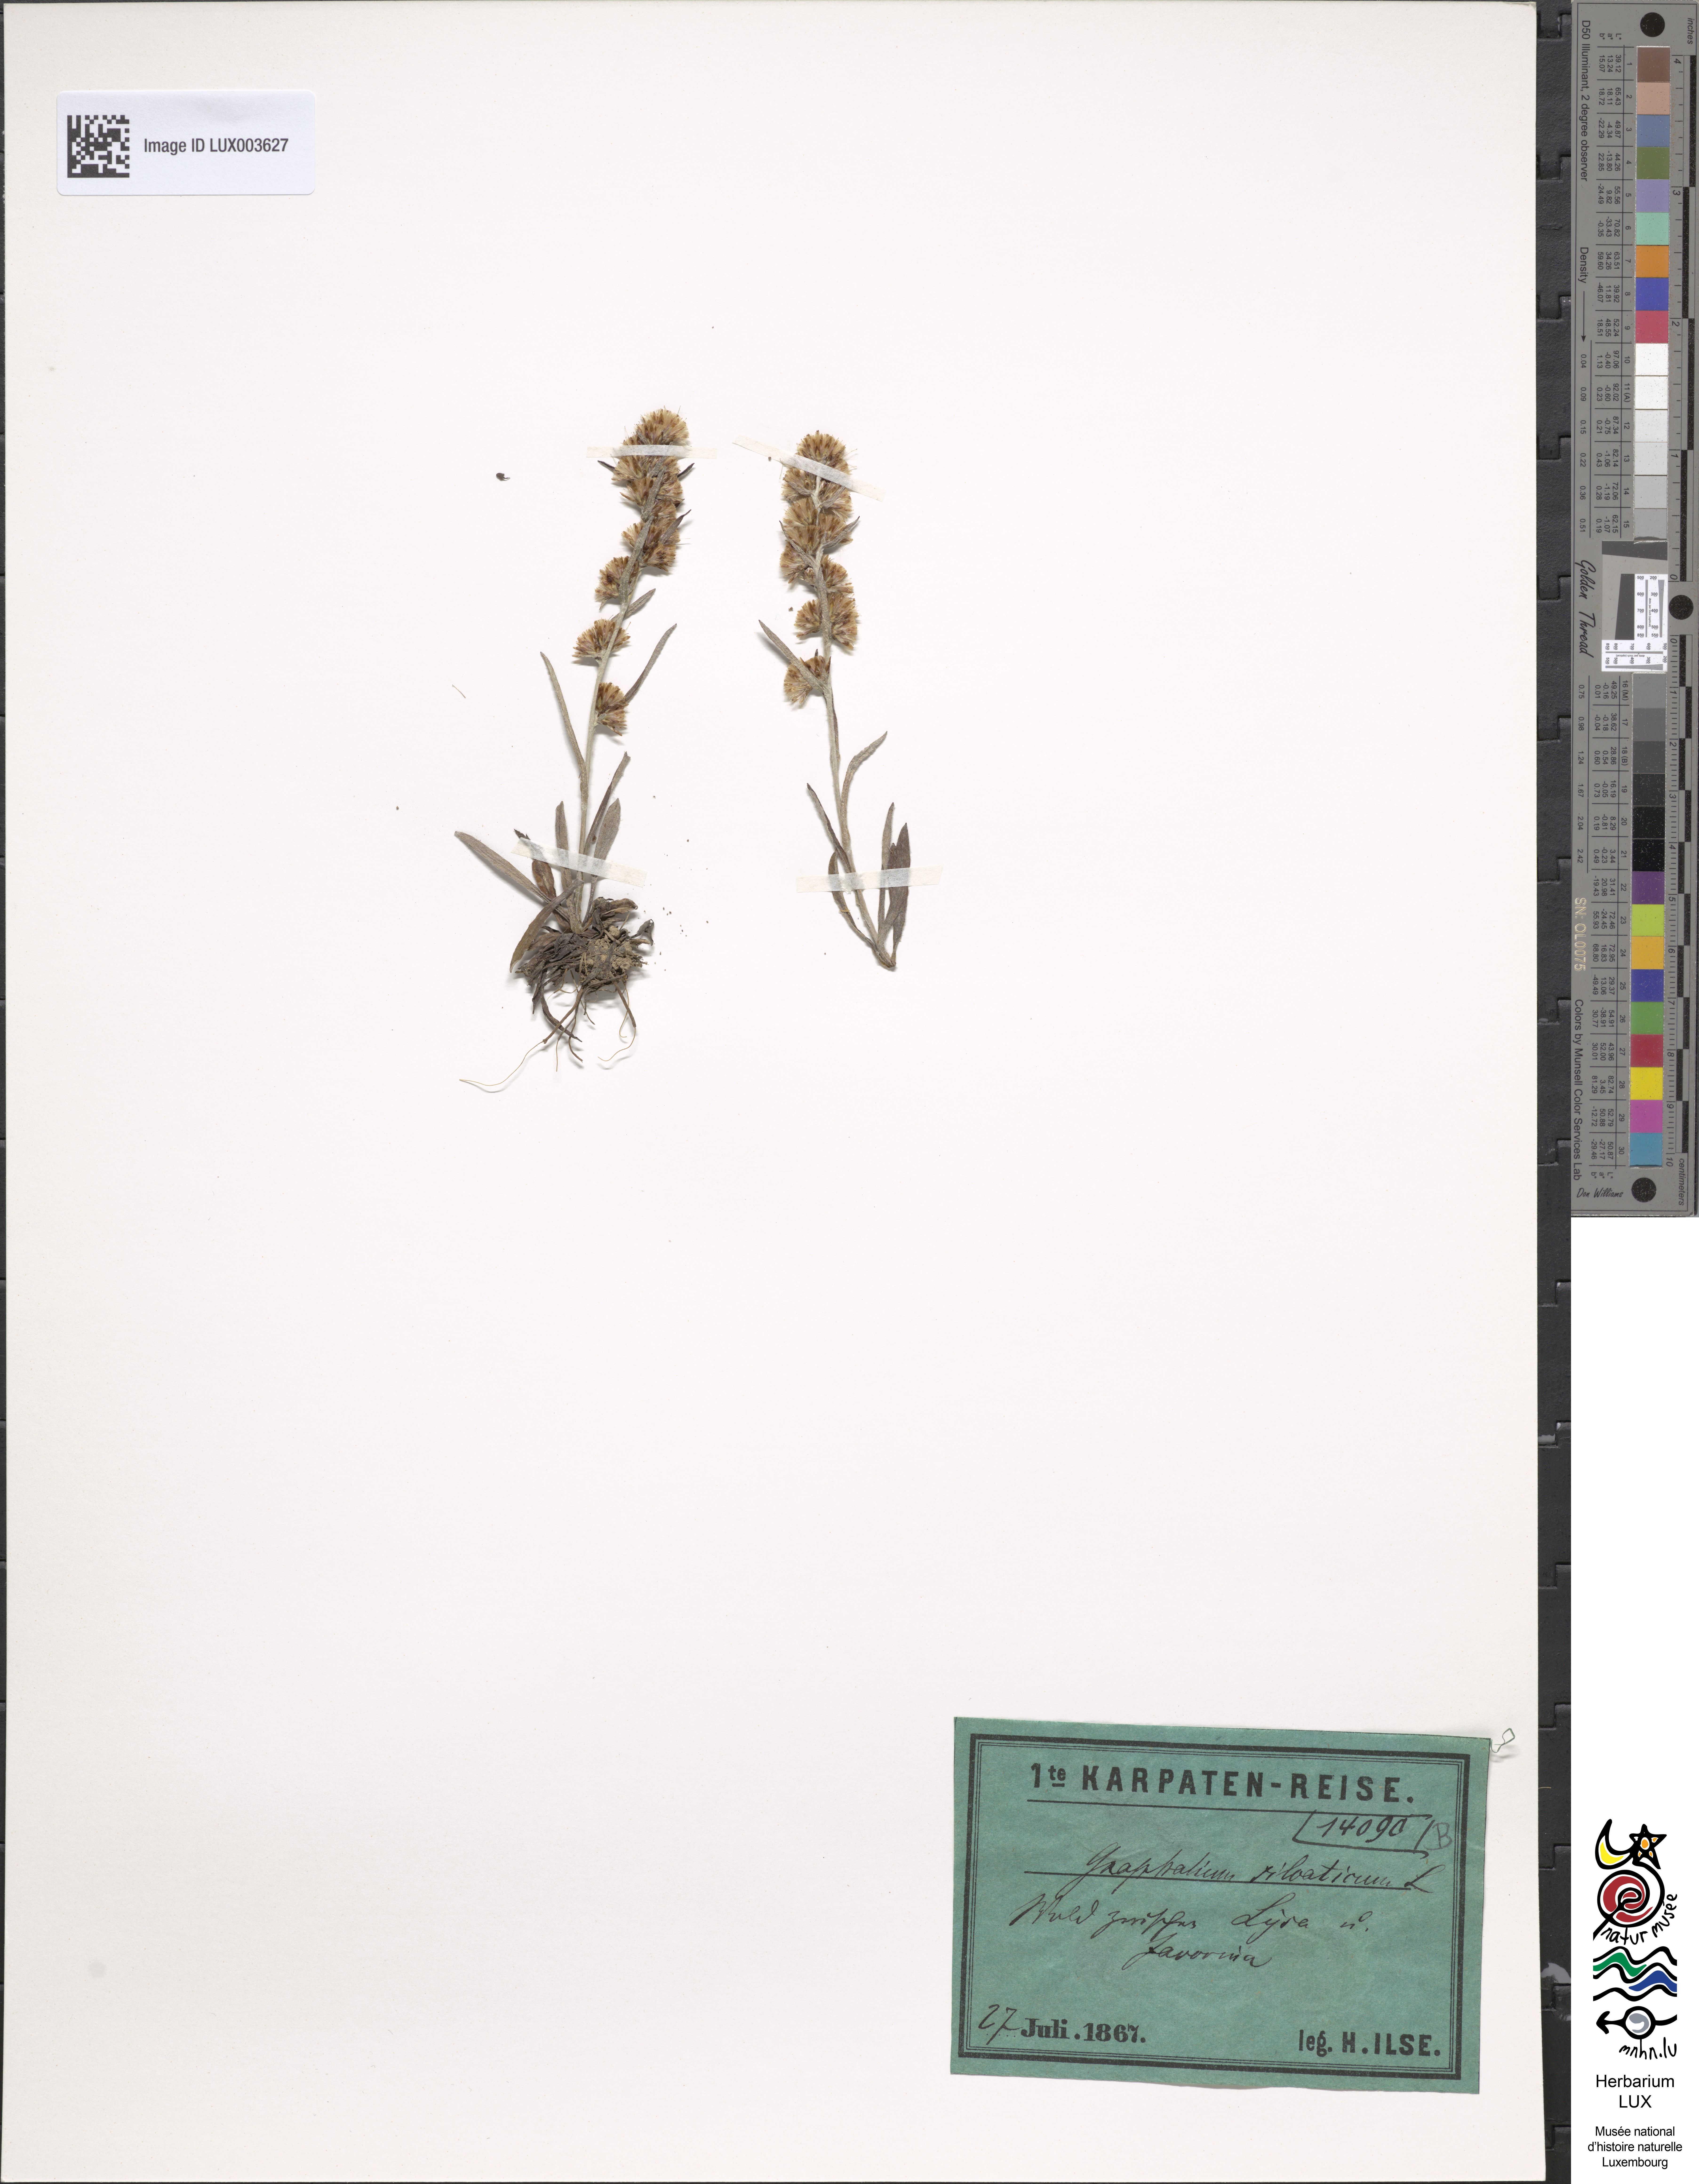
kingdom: Plantae
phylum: Tracheophyta
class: Magnoliopsida
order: Asterales
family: Asteraceae
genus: Omalotheca
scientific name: Omalotheca sylvatica
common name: Heath cudweed
